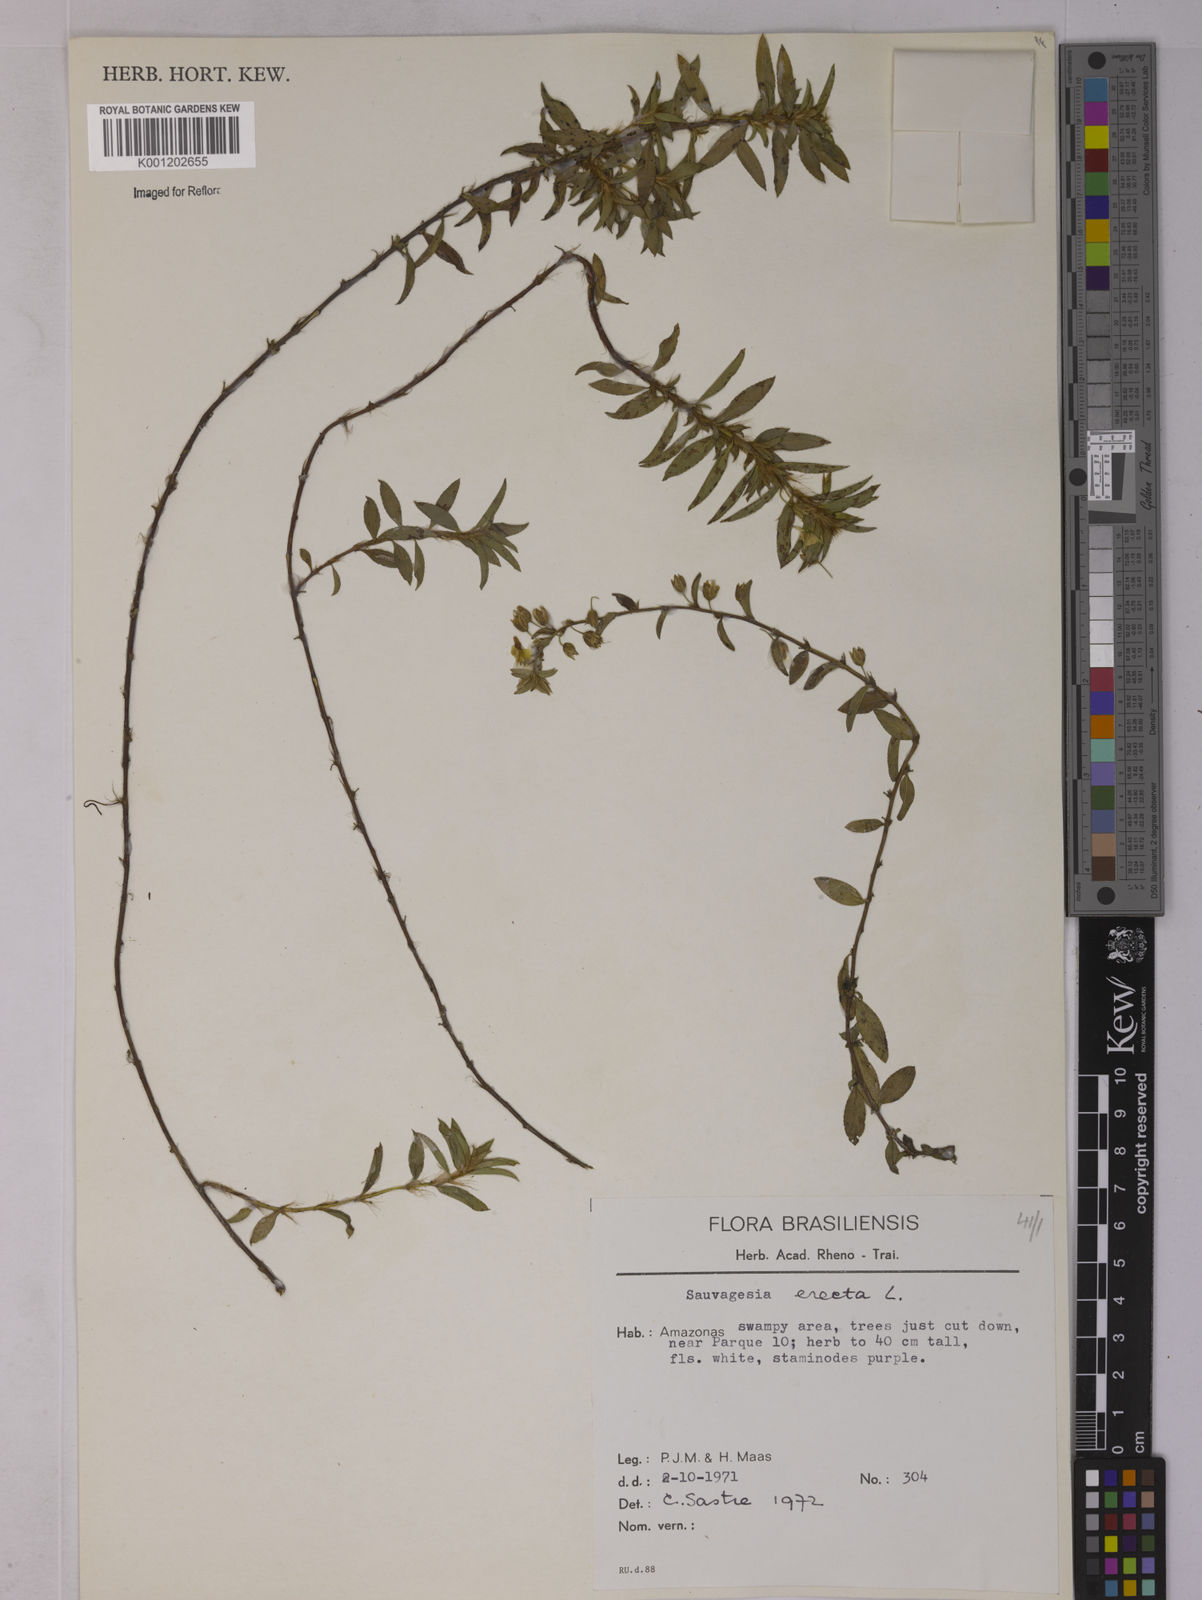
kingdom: Plantae
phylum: Tracheophyta
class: Magnoliopsida
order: Malpighiales
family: Ochnaceae
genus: Sauvagesia
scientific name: Sauvagesia erecta
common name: Creole tea
